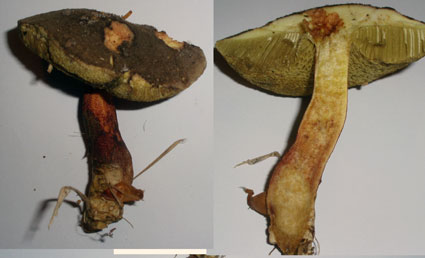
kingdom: Fungi
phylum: Basidiomycota
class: Agaricomycetes
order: Boletales
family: Boletaceae
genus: Xerocomellus
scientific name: Xerocomellus chrysenteron
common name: rødsprukken rørhat
